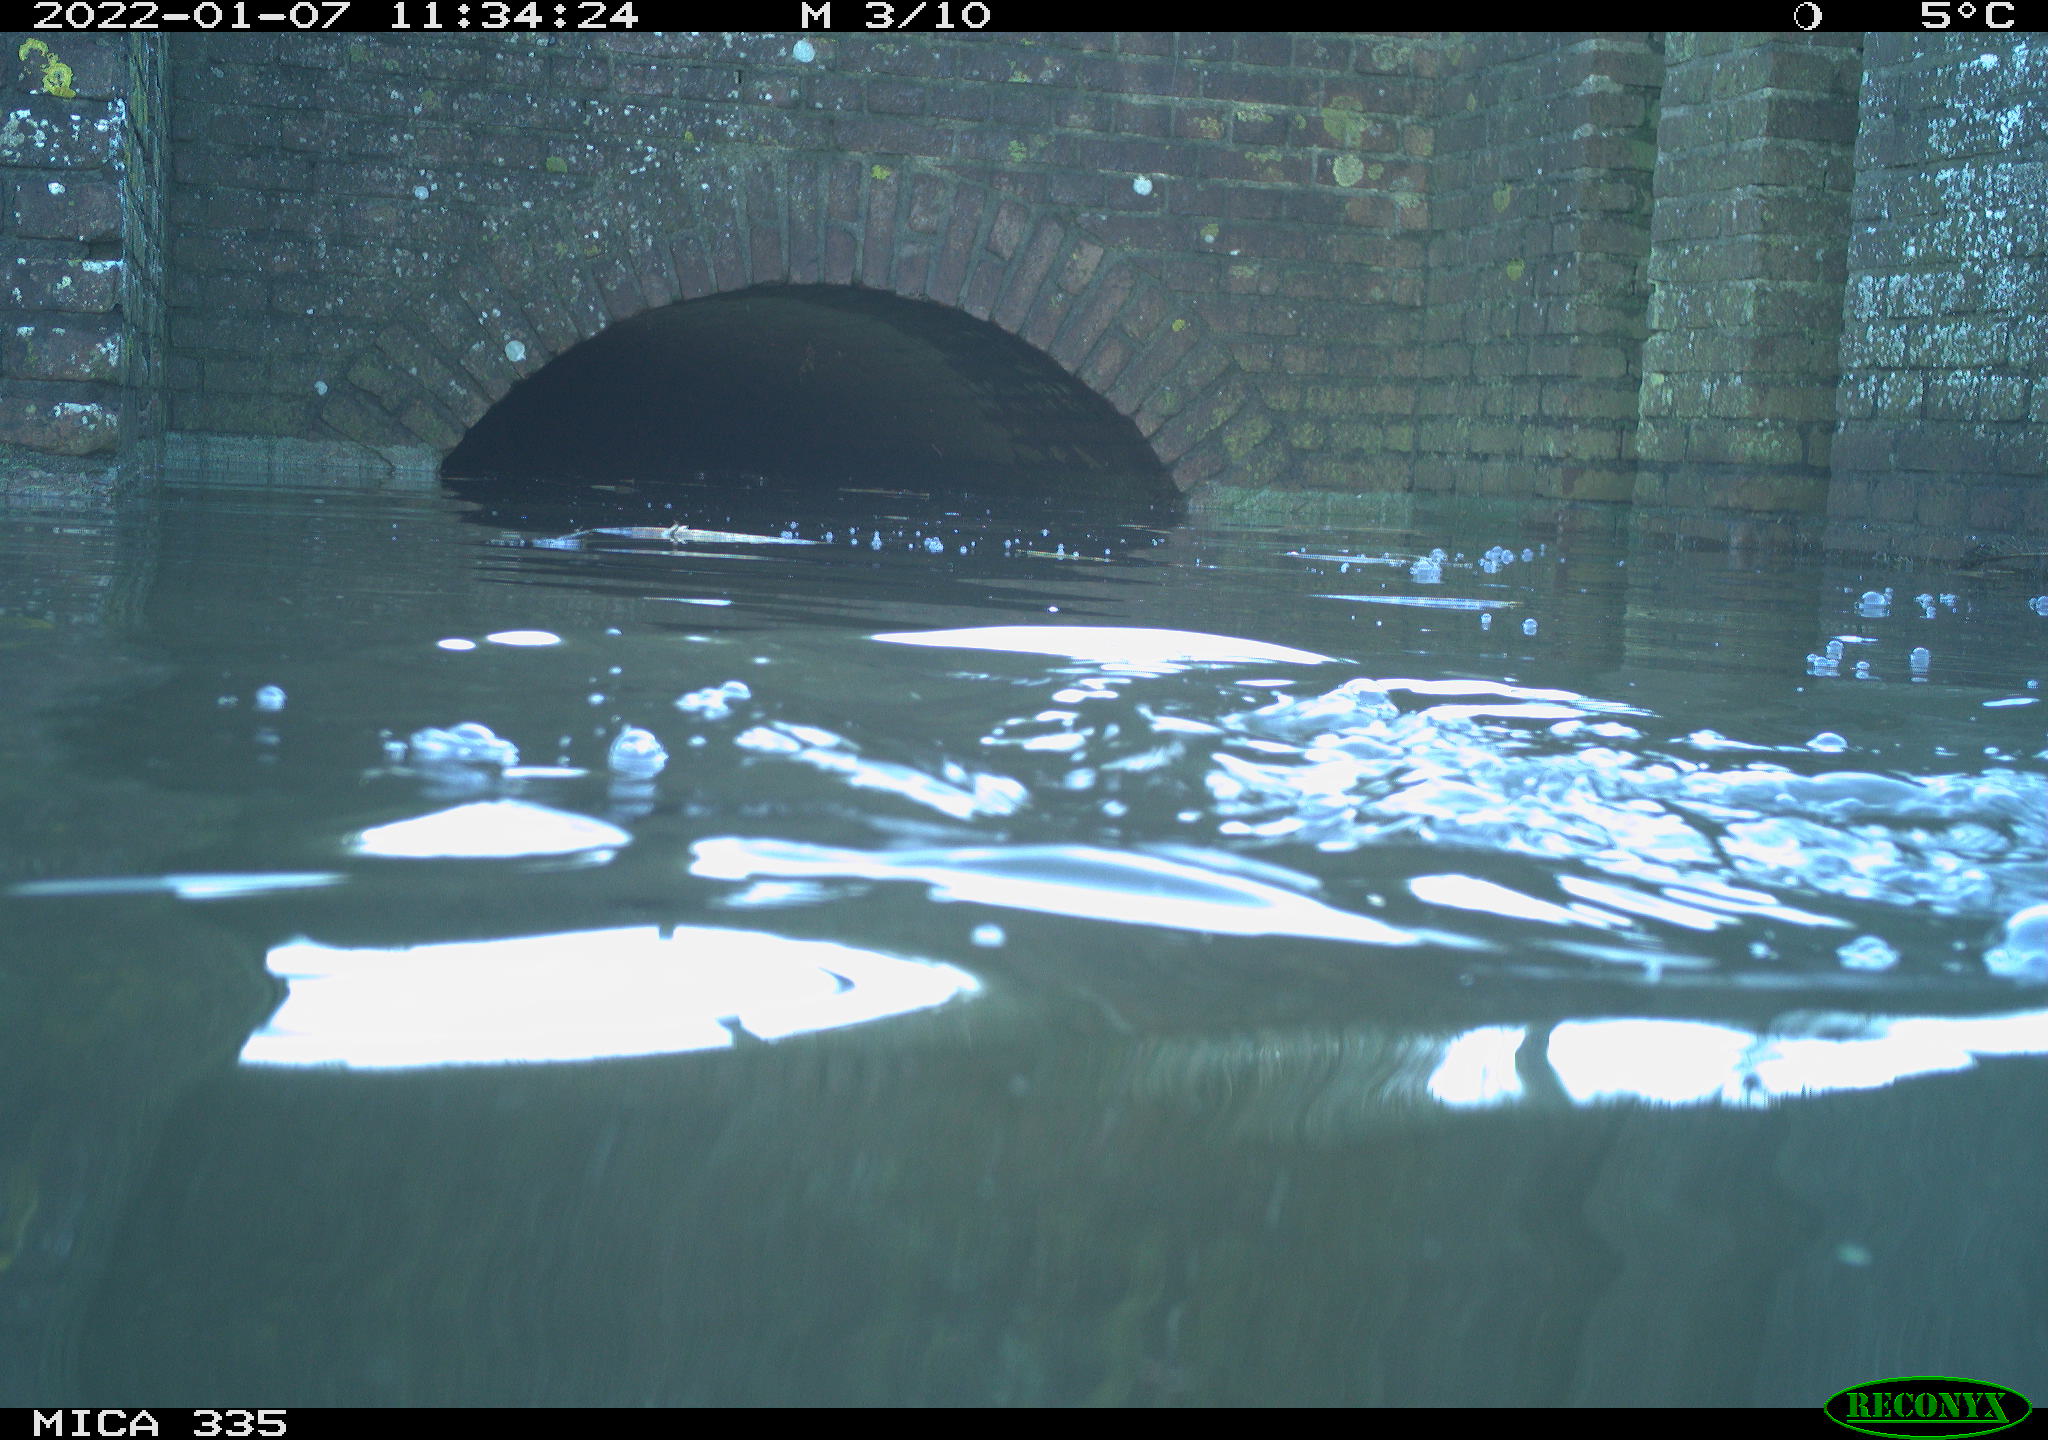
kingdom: Animalia
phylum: Chordata
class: Aves
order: Suliformes
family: Phalacrocoracidae
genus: Phalacrocorax
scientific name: Phalacrocorax carbo
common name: Great cormorant
